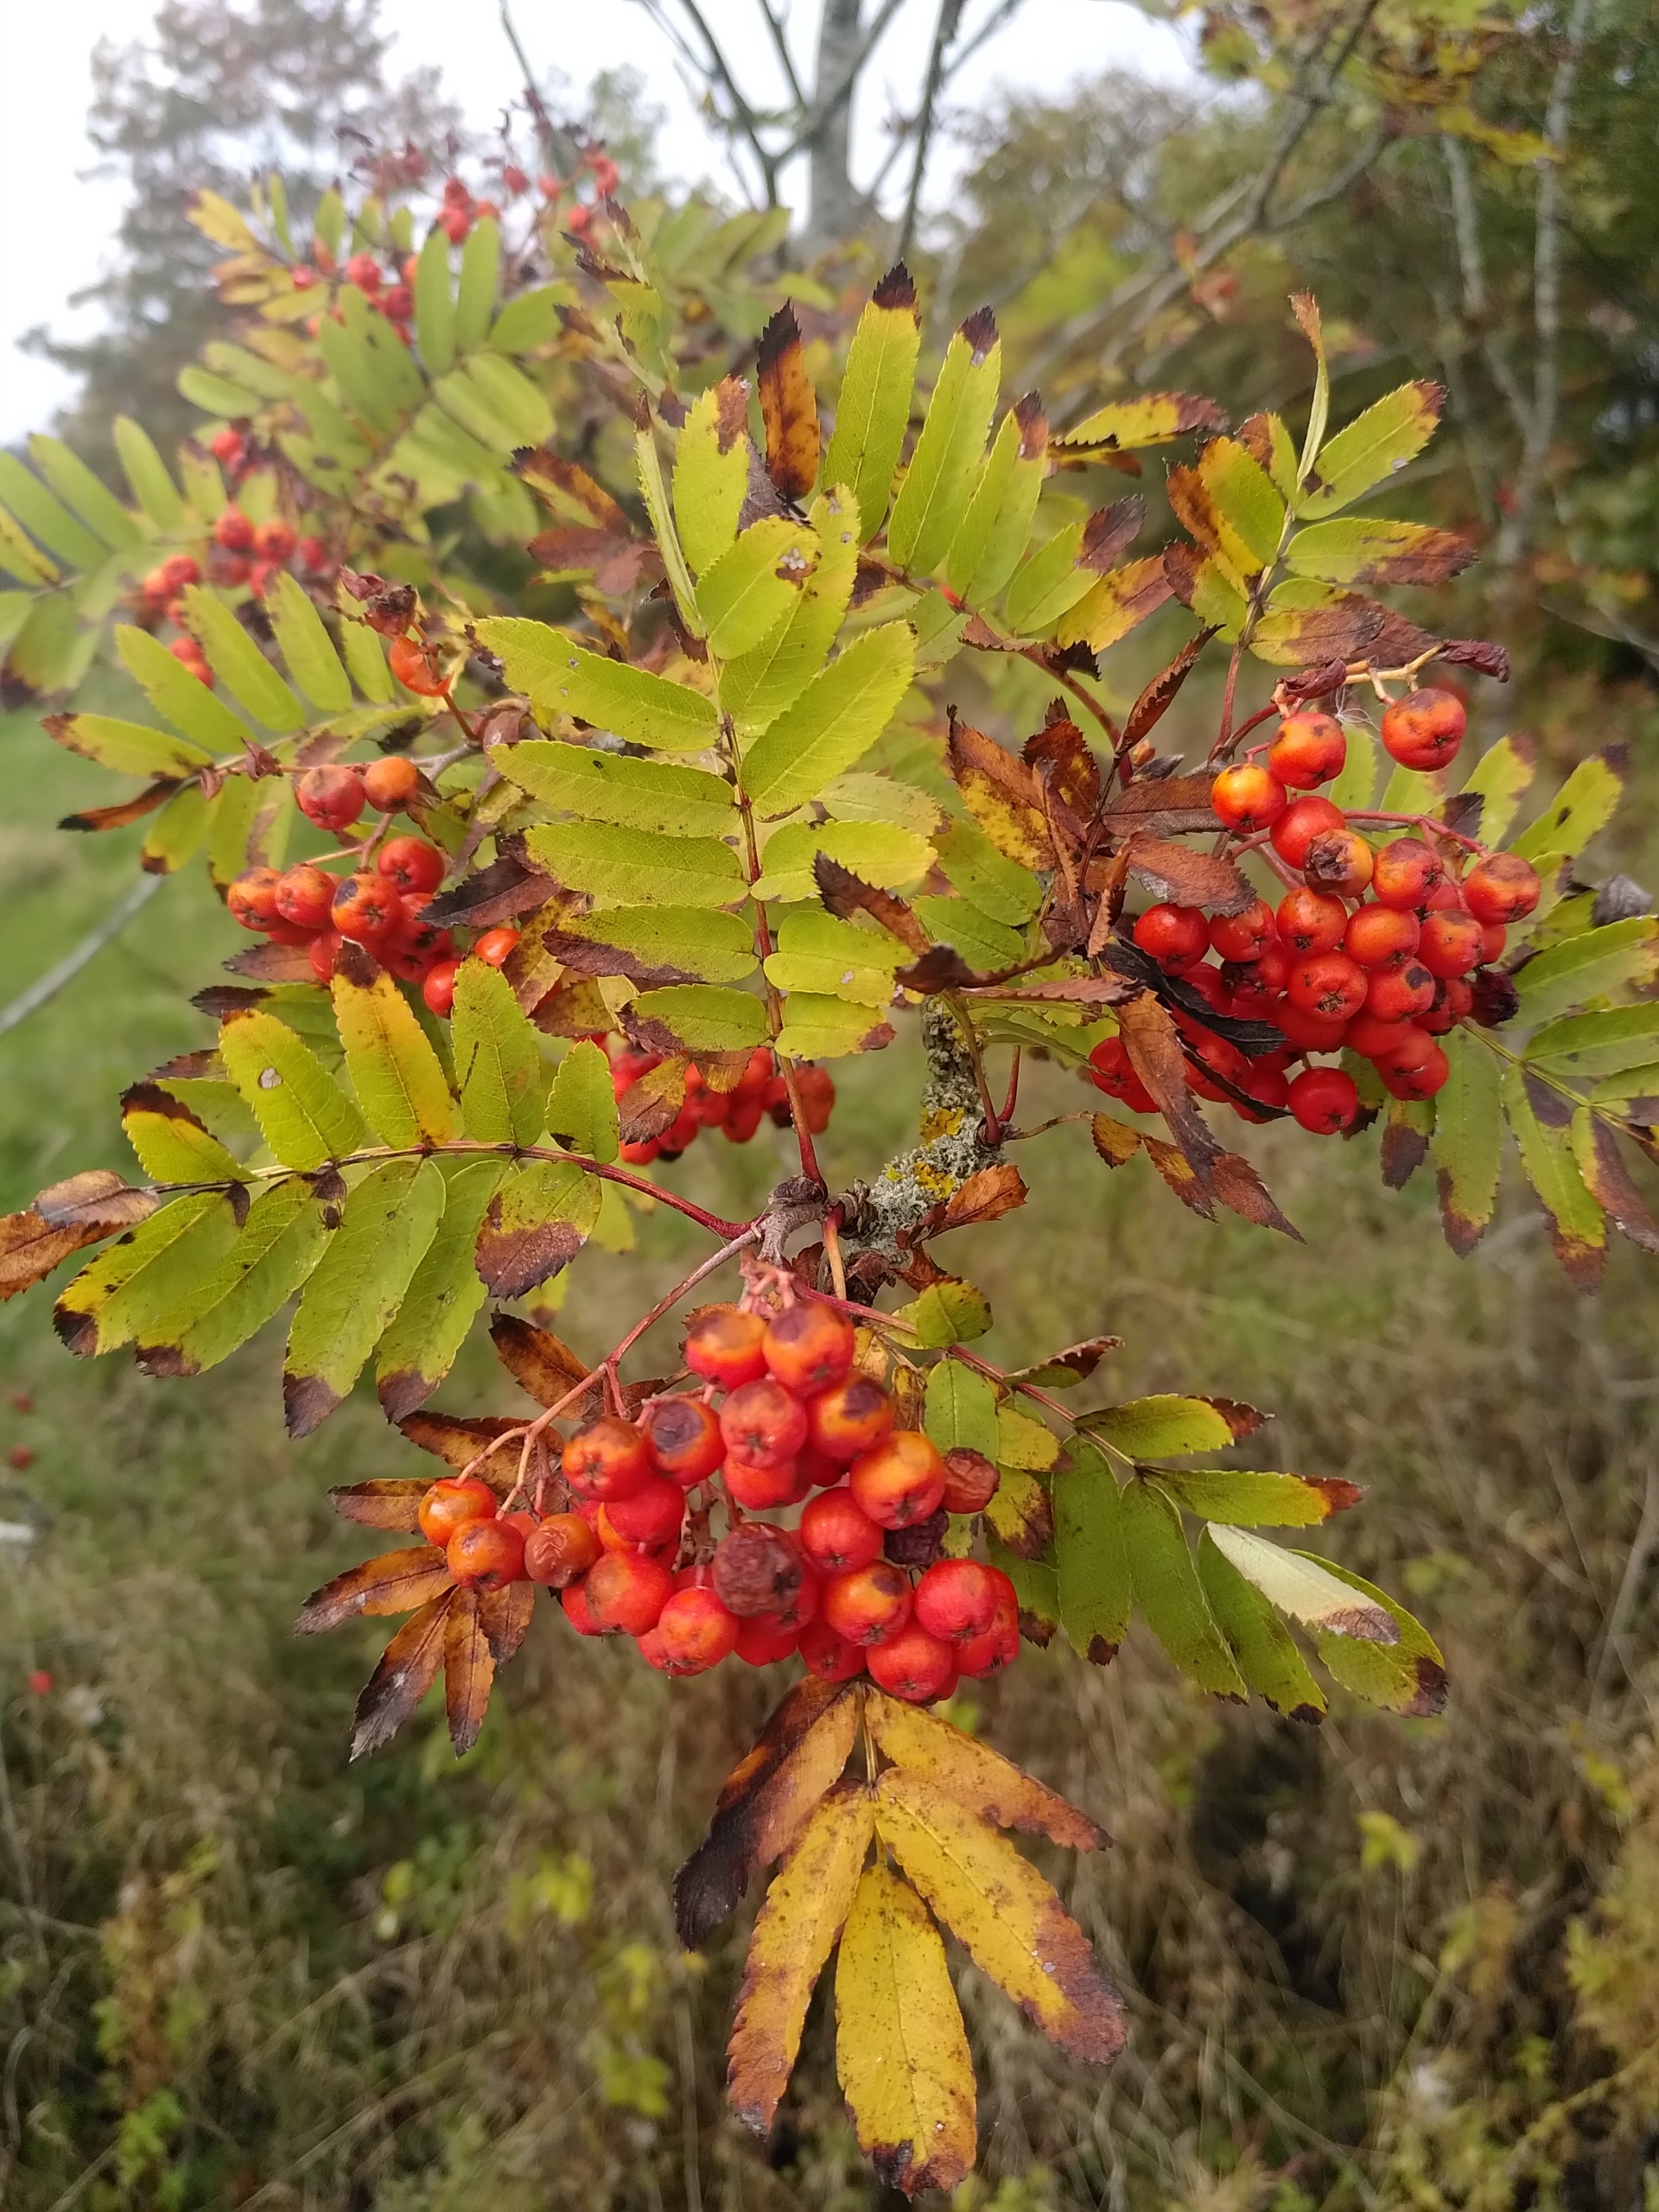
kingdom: Plantae
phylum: Tracheophyta
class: Magnoliopsida
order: Rosales
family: Rosaceae
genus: Sorbus
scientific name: Sorbus aucuparia
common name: Almindelig røn
